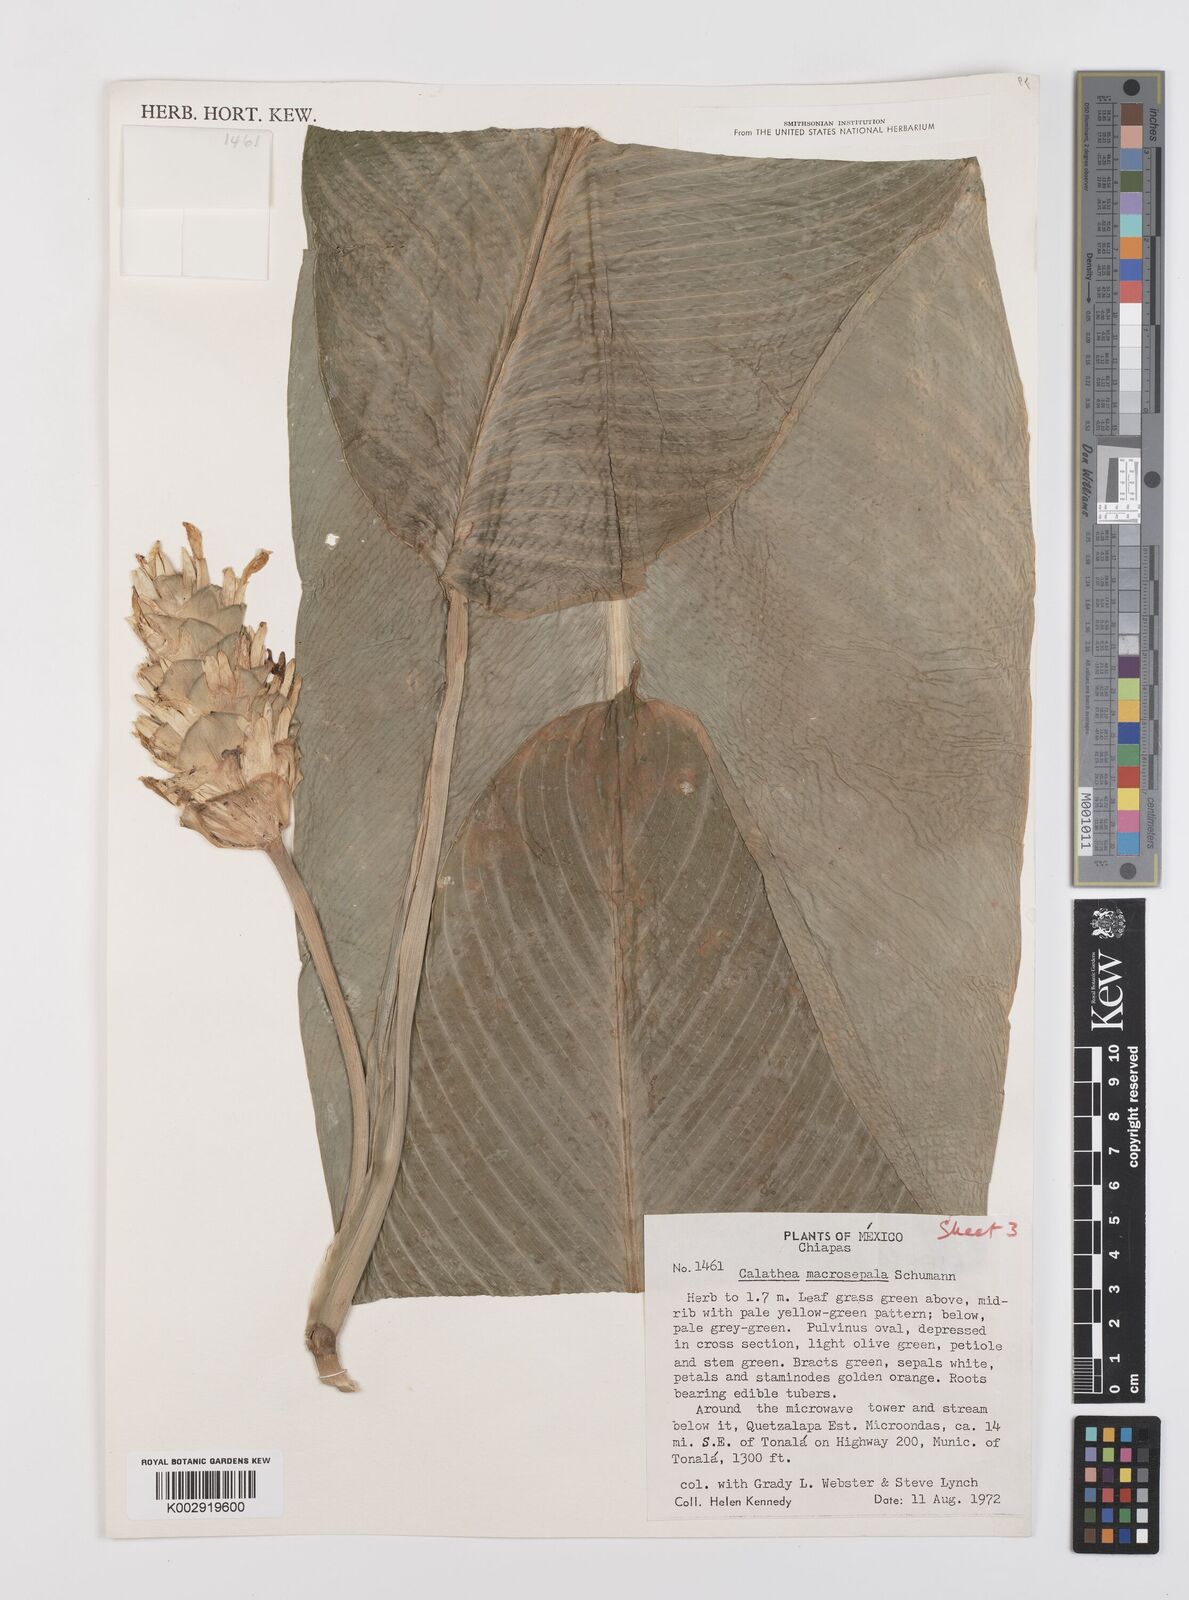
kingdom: Plantae
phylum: Tracheophyta
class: Liliopsida
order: Zingiberales
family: Marantaceae
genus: Goeppertia
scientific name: Goeppertia macrosepala
